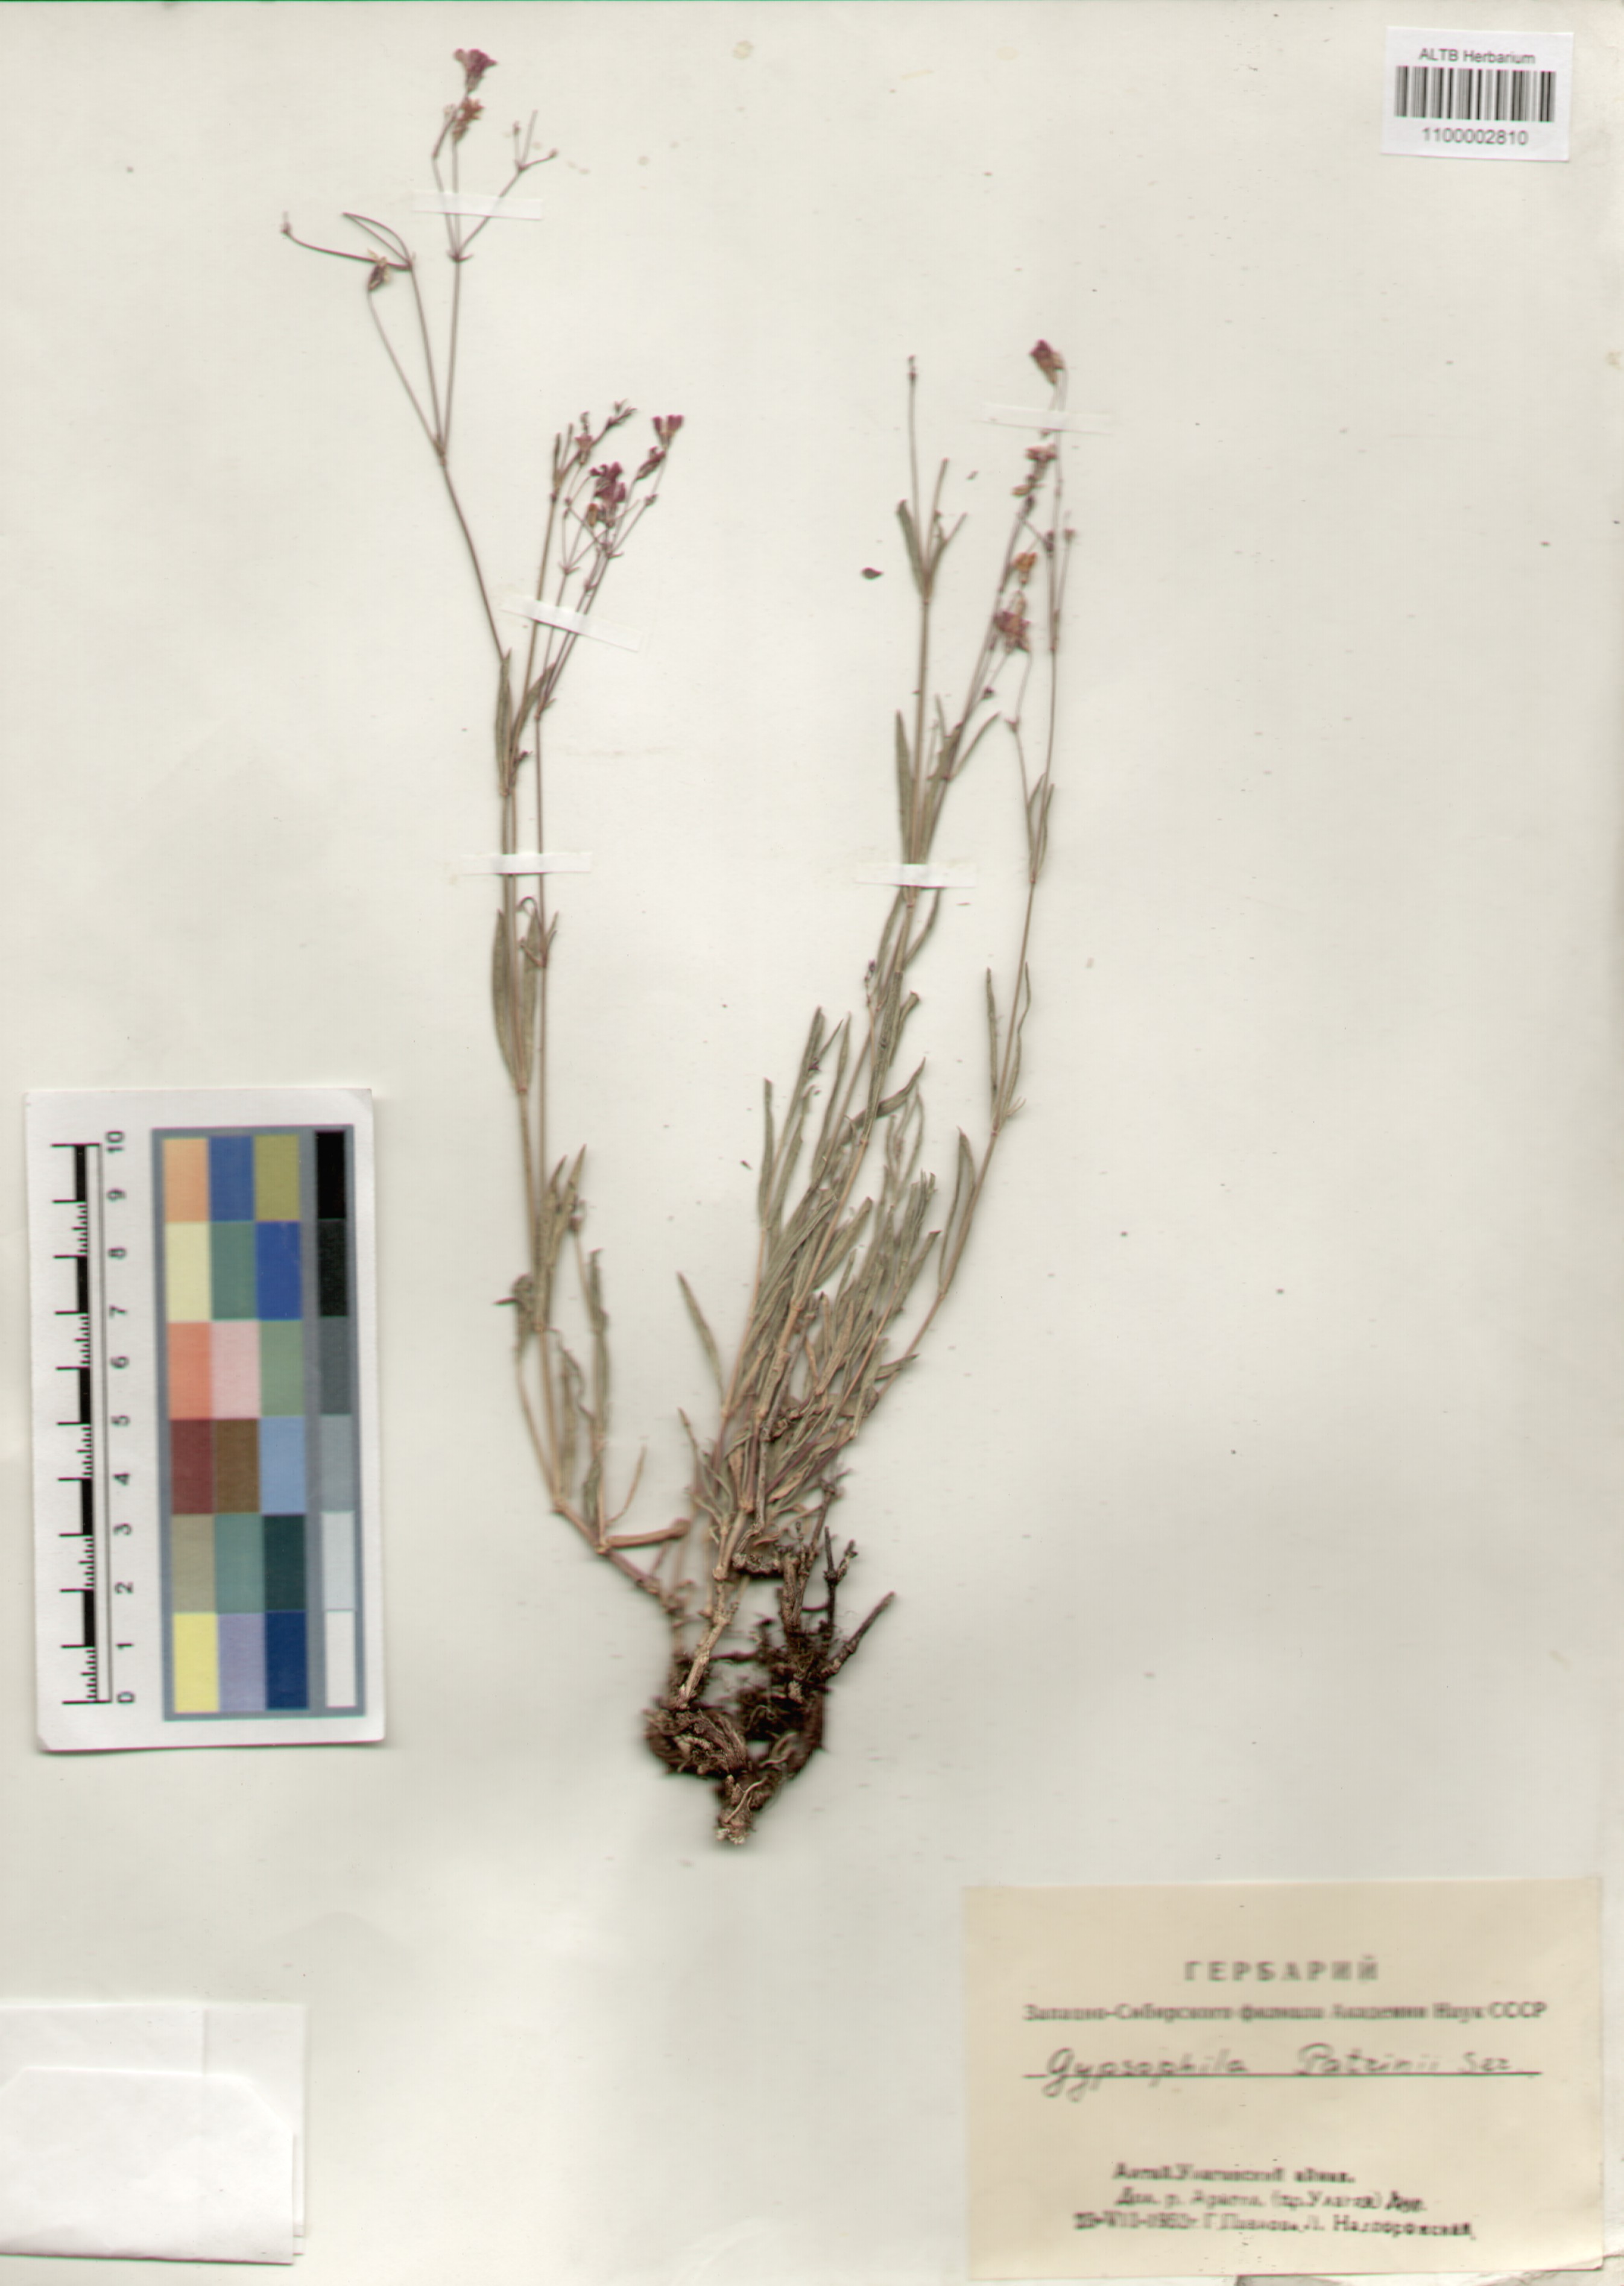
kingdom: Plantae
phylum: Tracheophyta
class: Magnoliopsida
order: Caryophyllales
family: Caryophyllaceae
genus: Gypsophila
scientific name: Gypsophila patrinii
